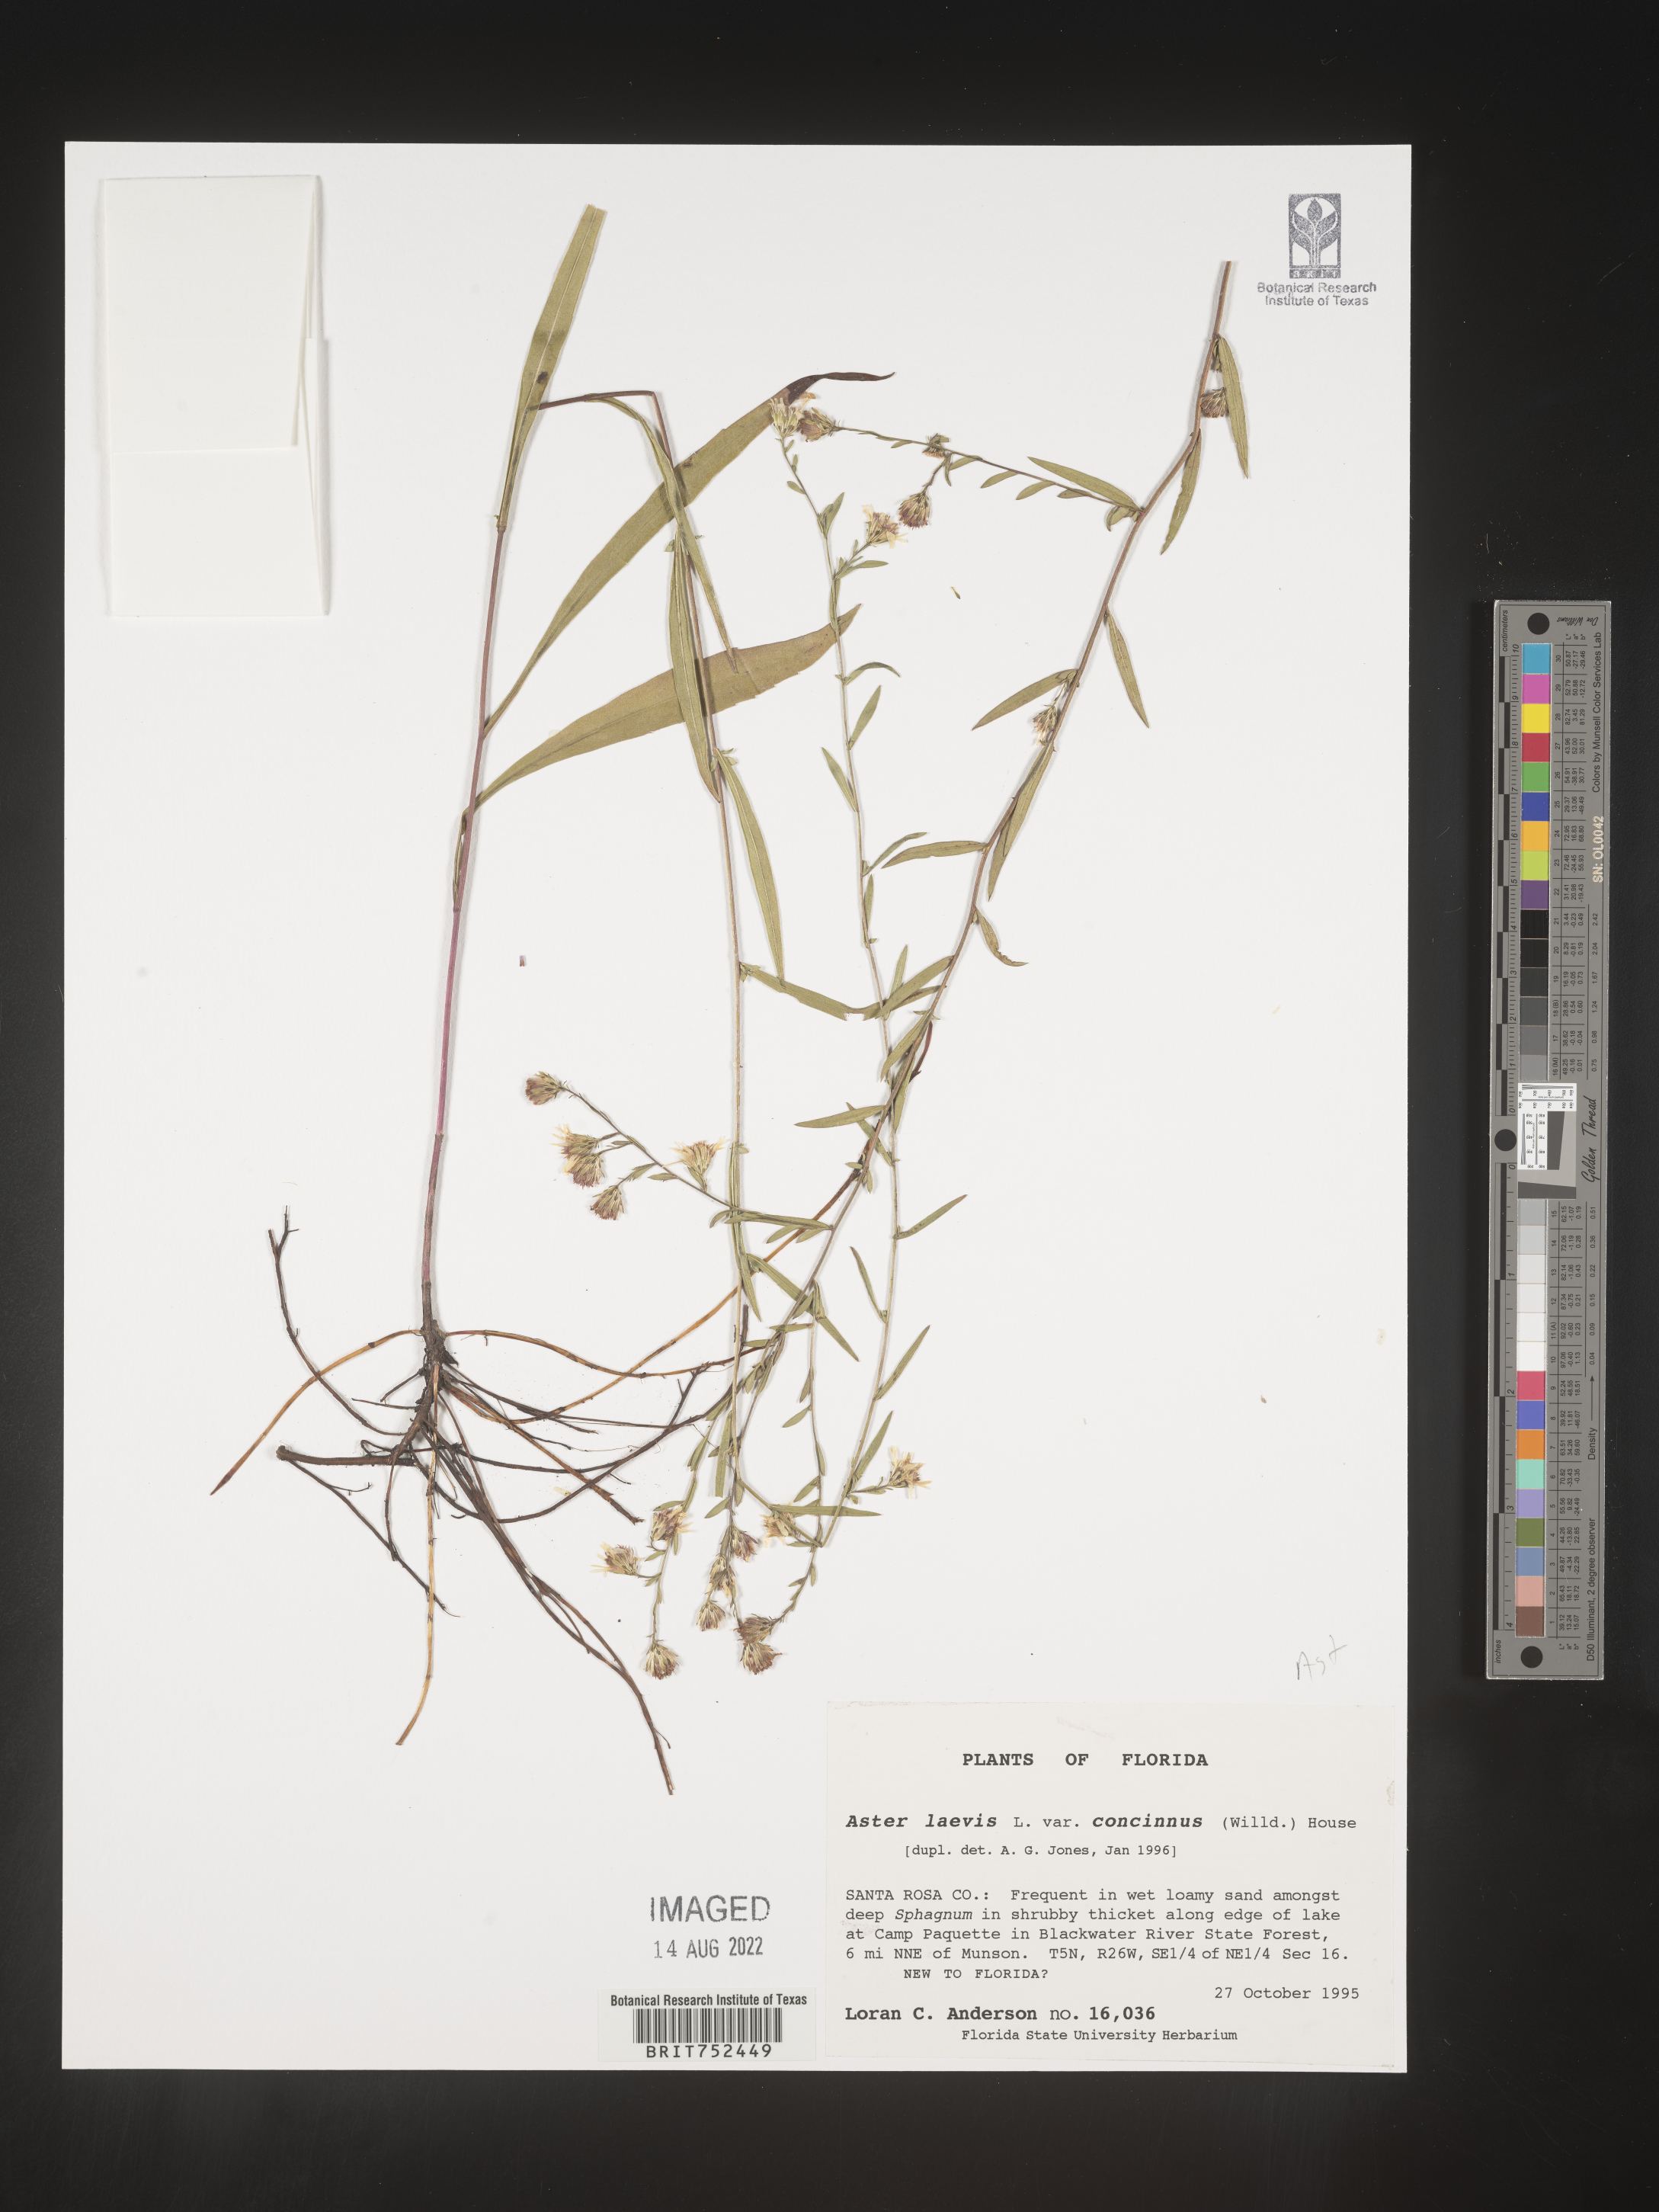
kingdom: Plantae
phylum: Tracheophyta
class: Magnoliopsida
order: Asterales
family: Asteraceae
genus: Symphyotrichum
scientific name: Symphyotrichum kralii
